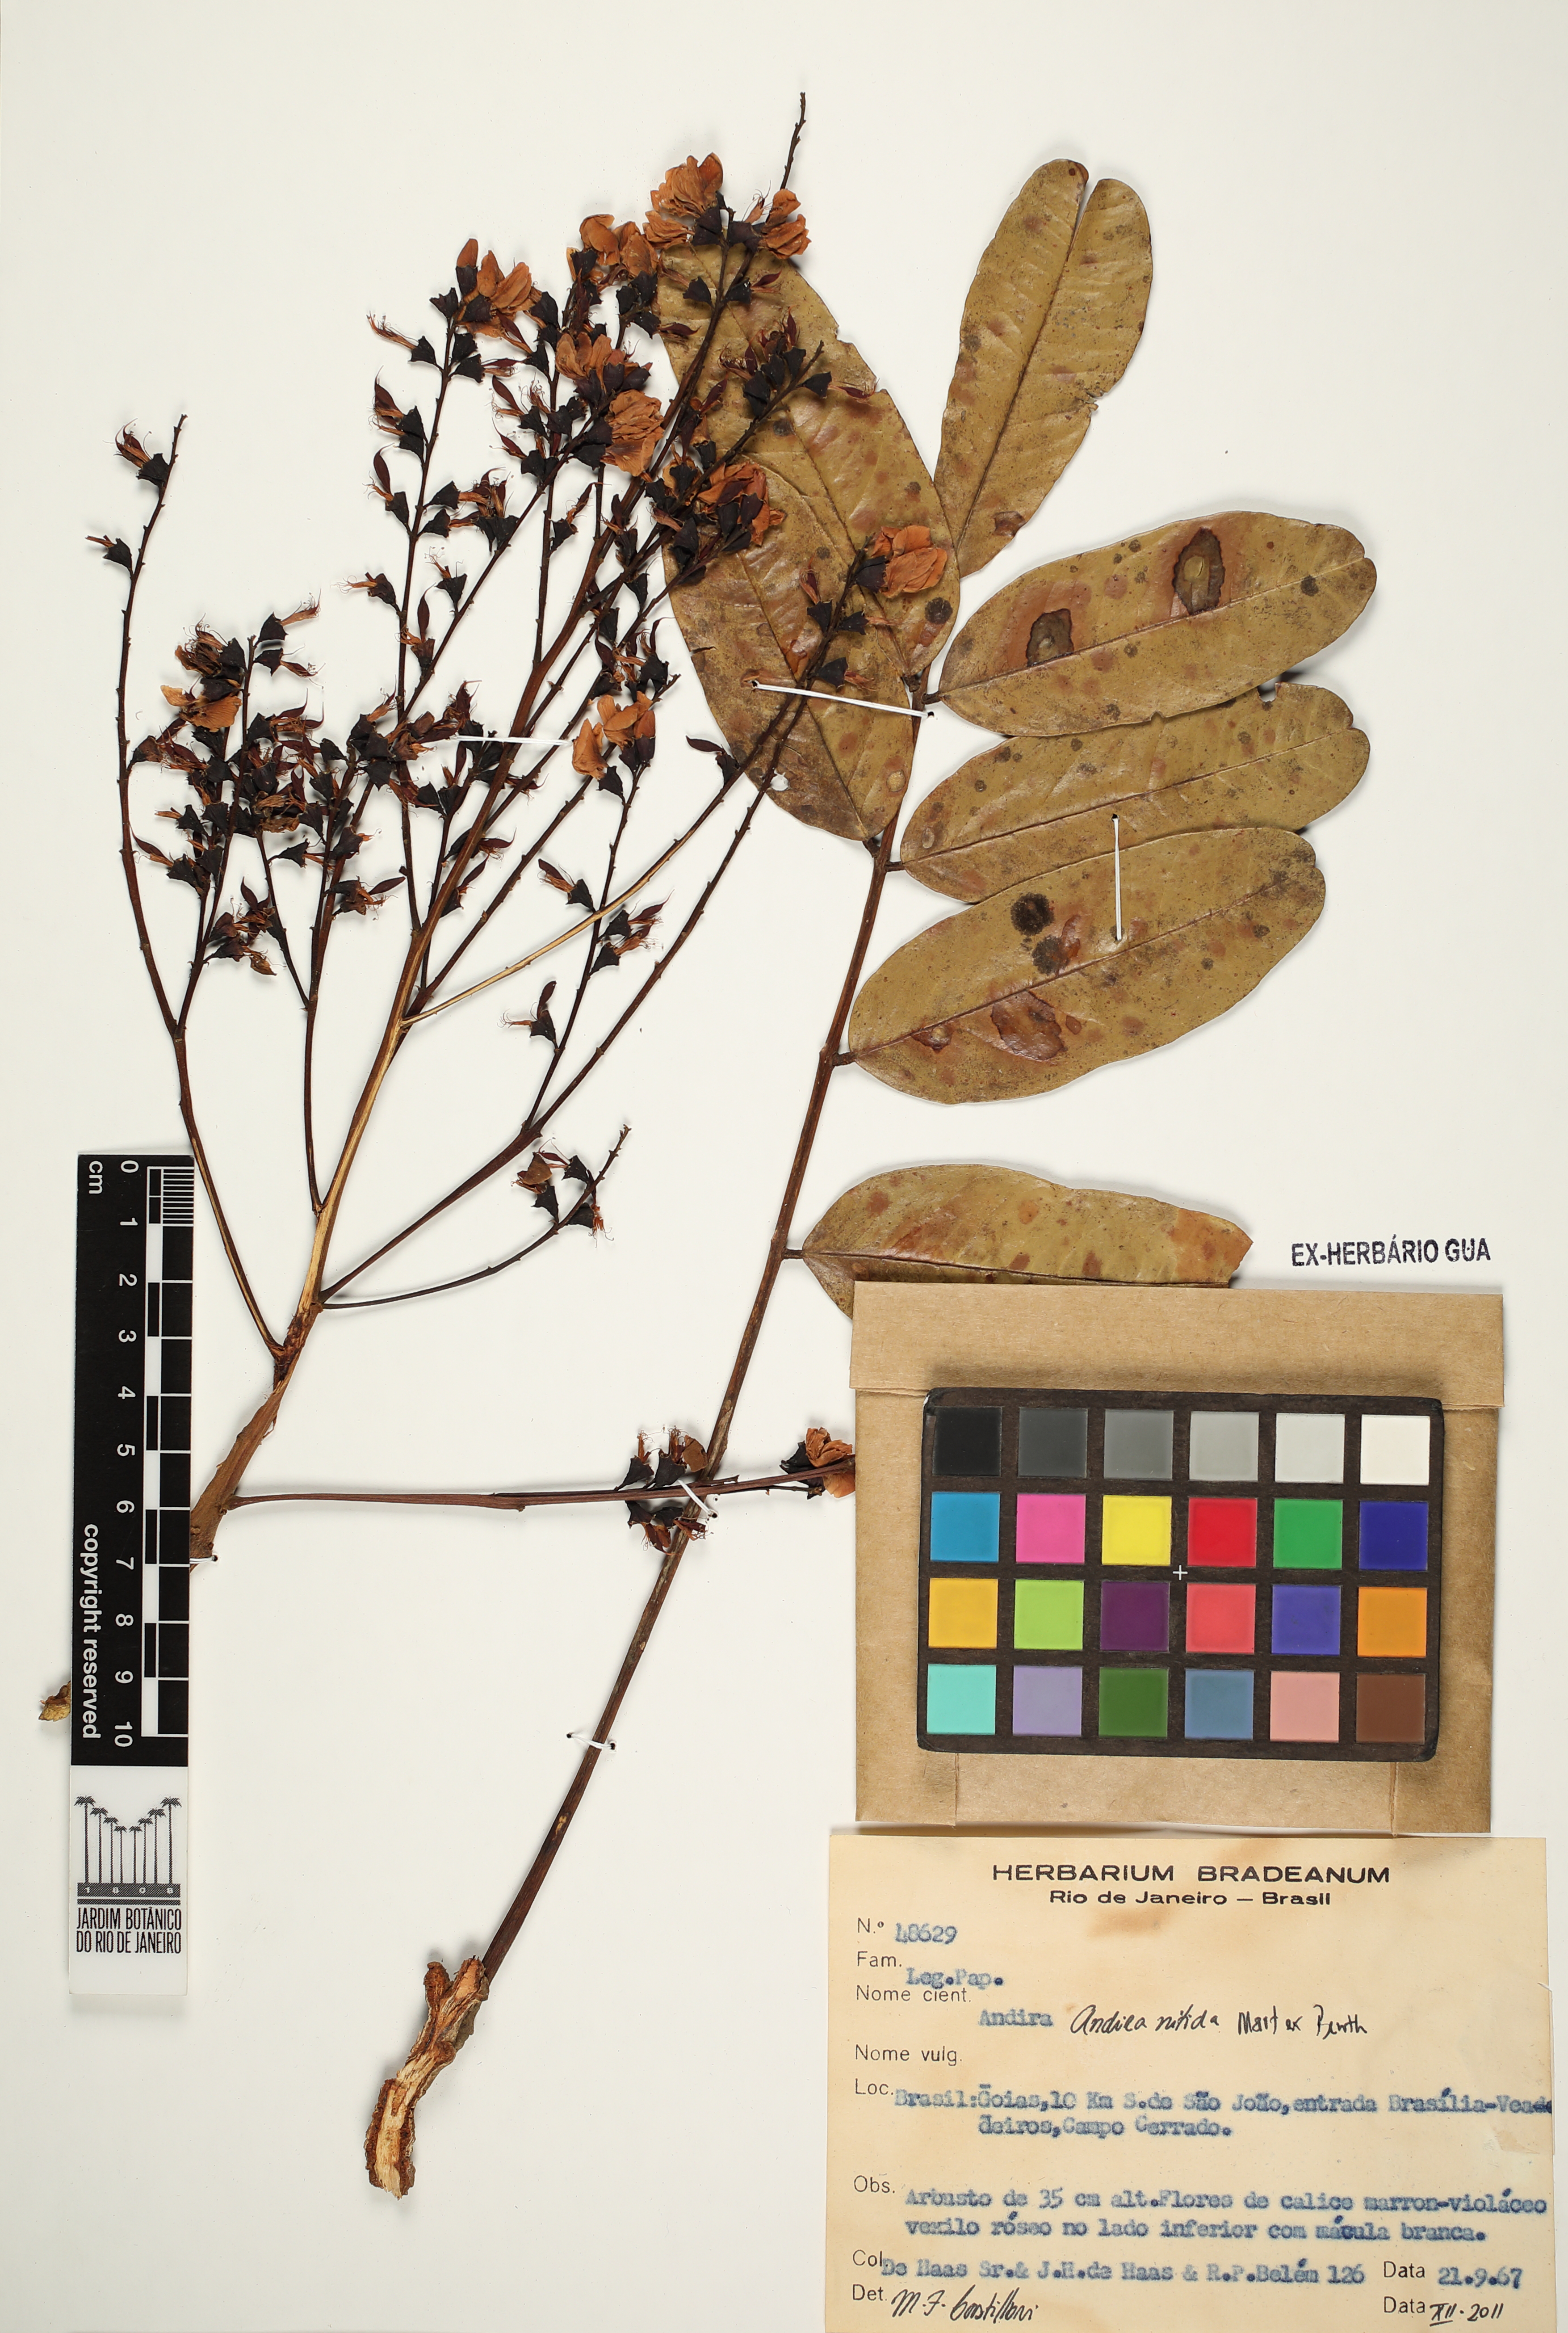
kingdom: Plantae
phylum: Tracheophyta
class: Magnoliopsida
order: Fabales
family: Fabaceae
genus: Andira
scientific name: Andira nitida
